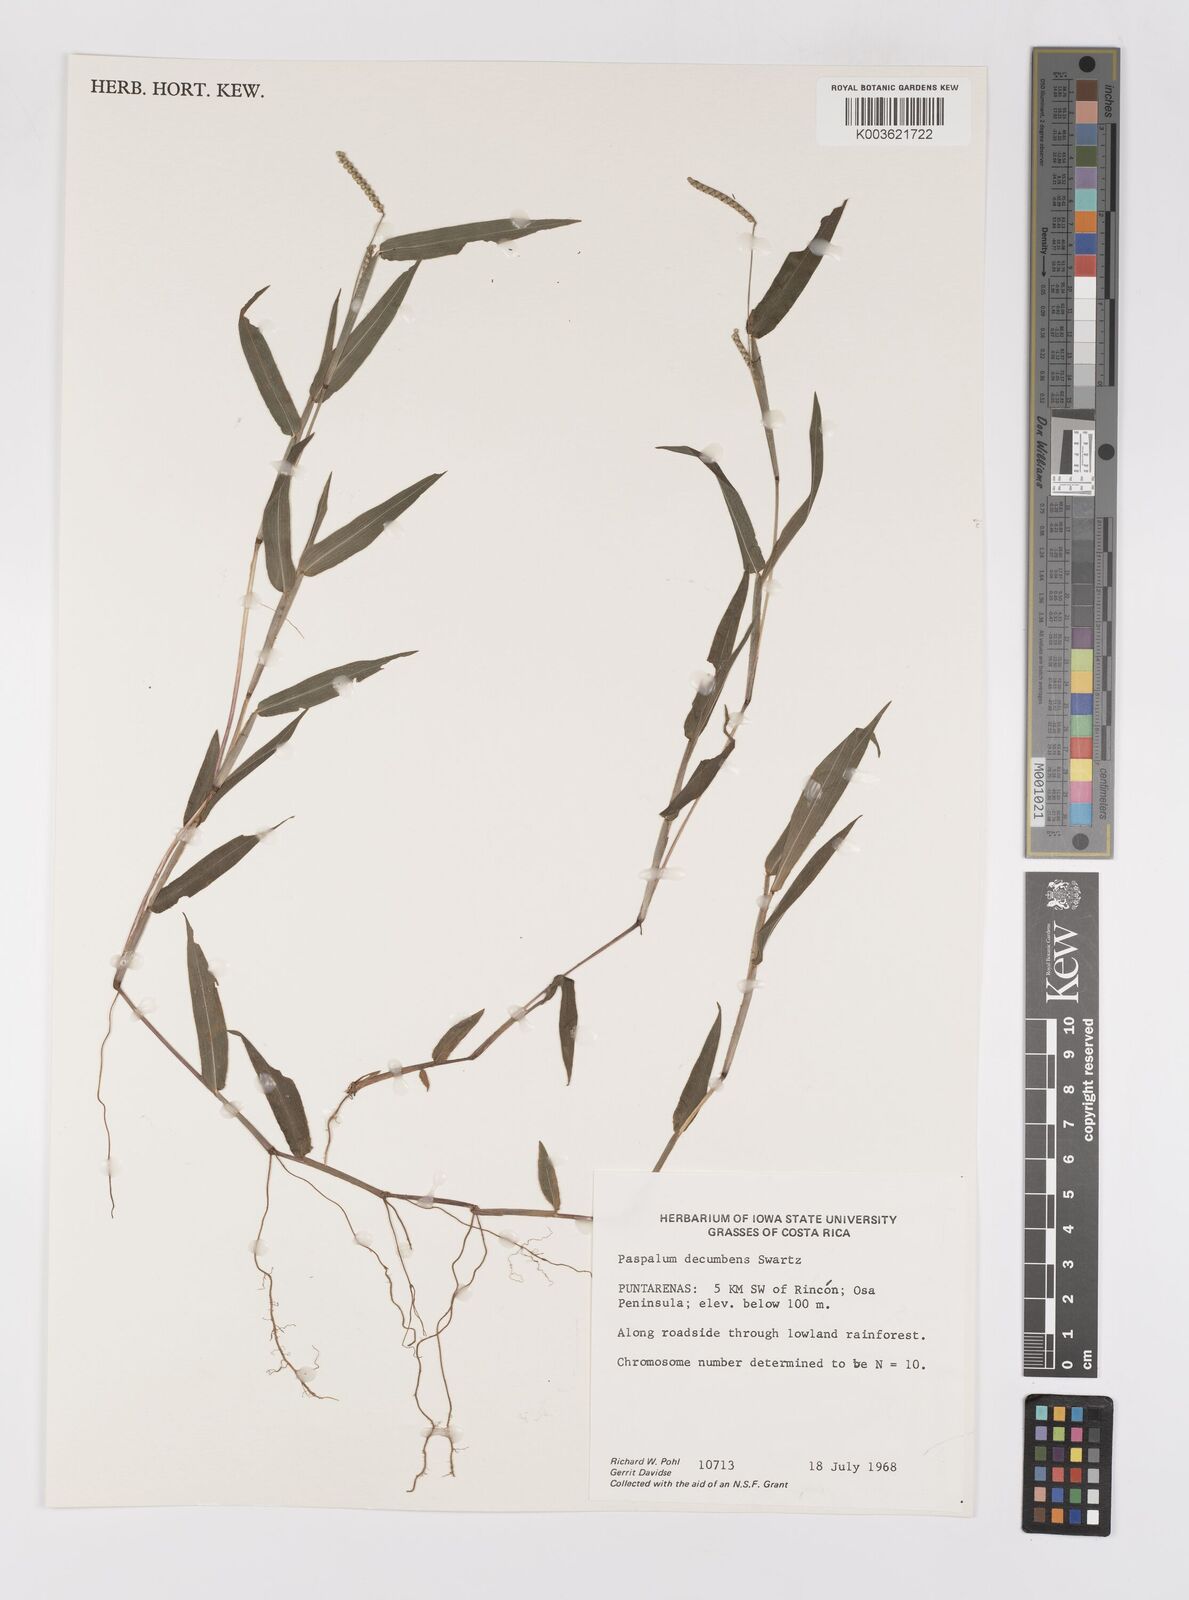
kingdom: Plantae
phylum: Tracheophyta
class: Liliopsida
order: Poales
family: Poaceae
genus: Paspalum
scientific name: Paspalum
